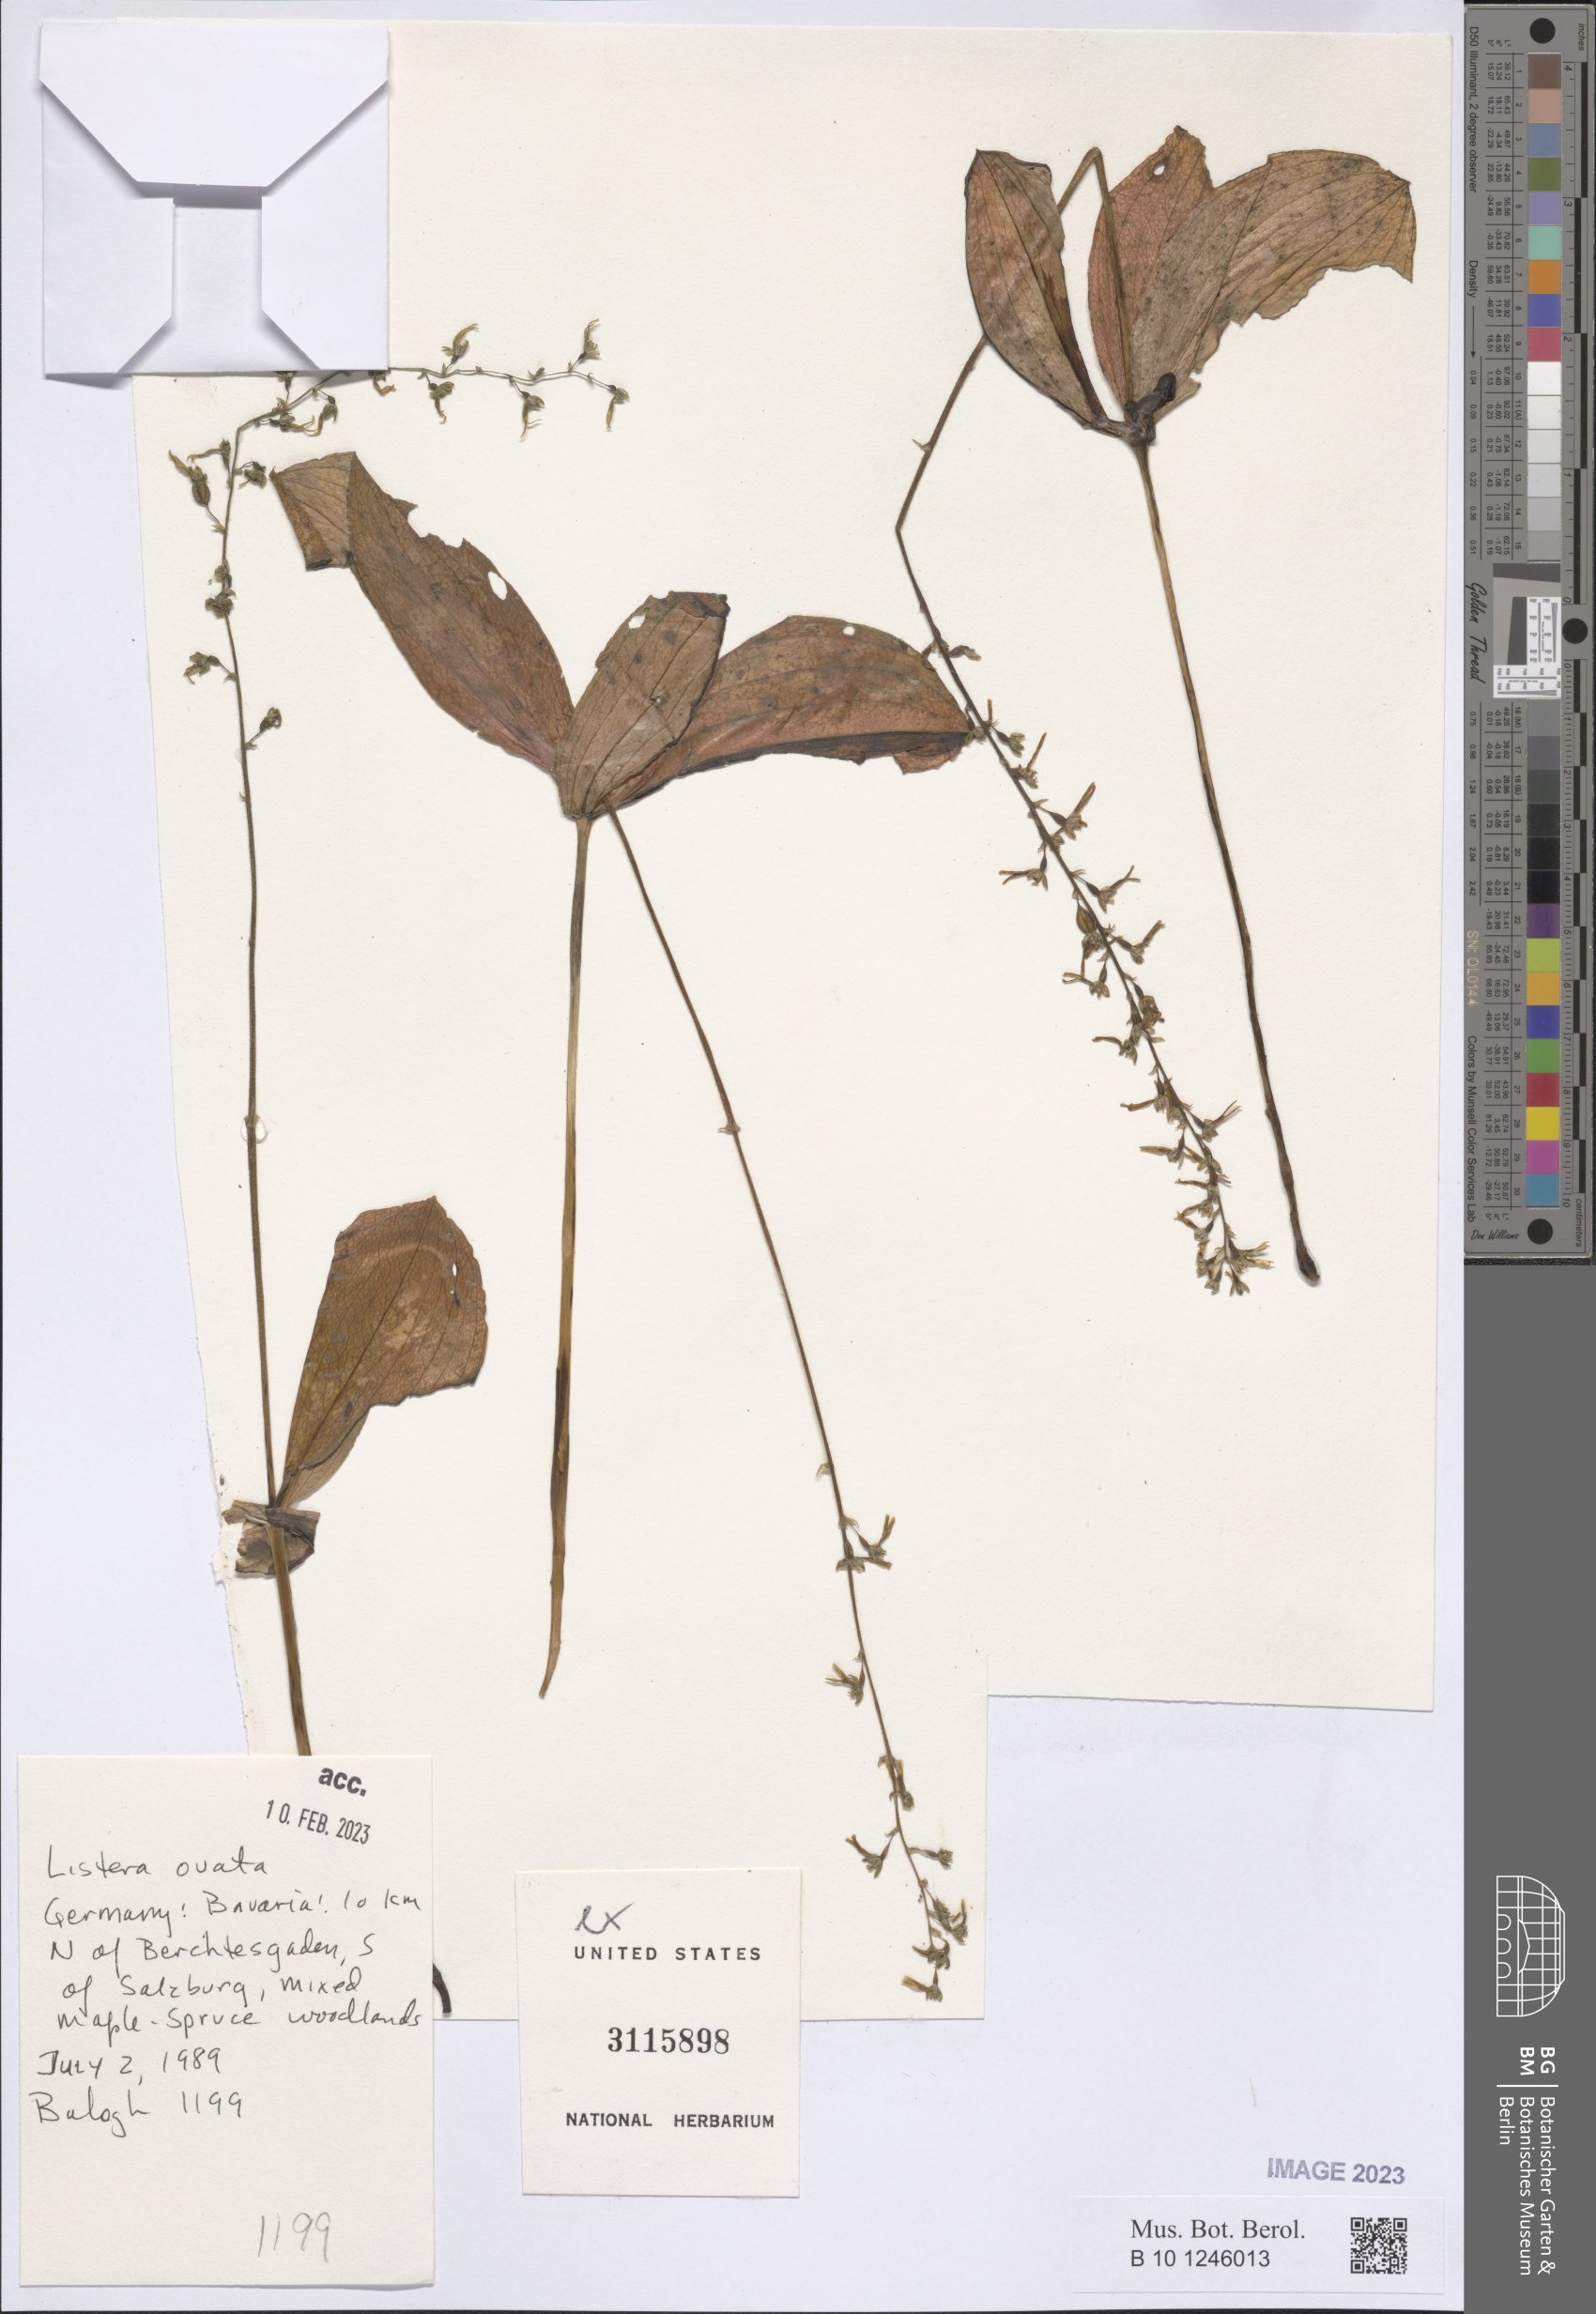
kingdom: Plantae
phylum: Tracheophyta
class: Liliopsida
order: Asparagales
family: Orchidaceae
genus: Neottia
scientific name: Neottia ovata
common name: Common twayblade
